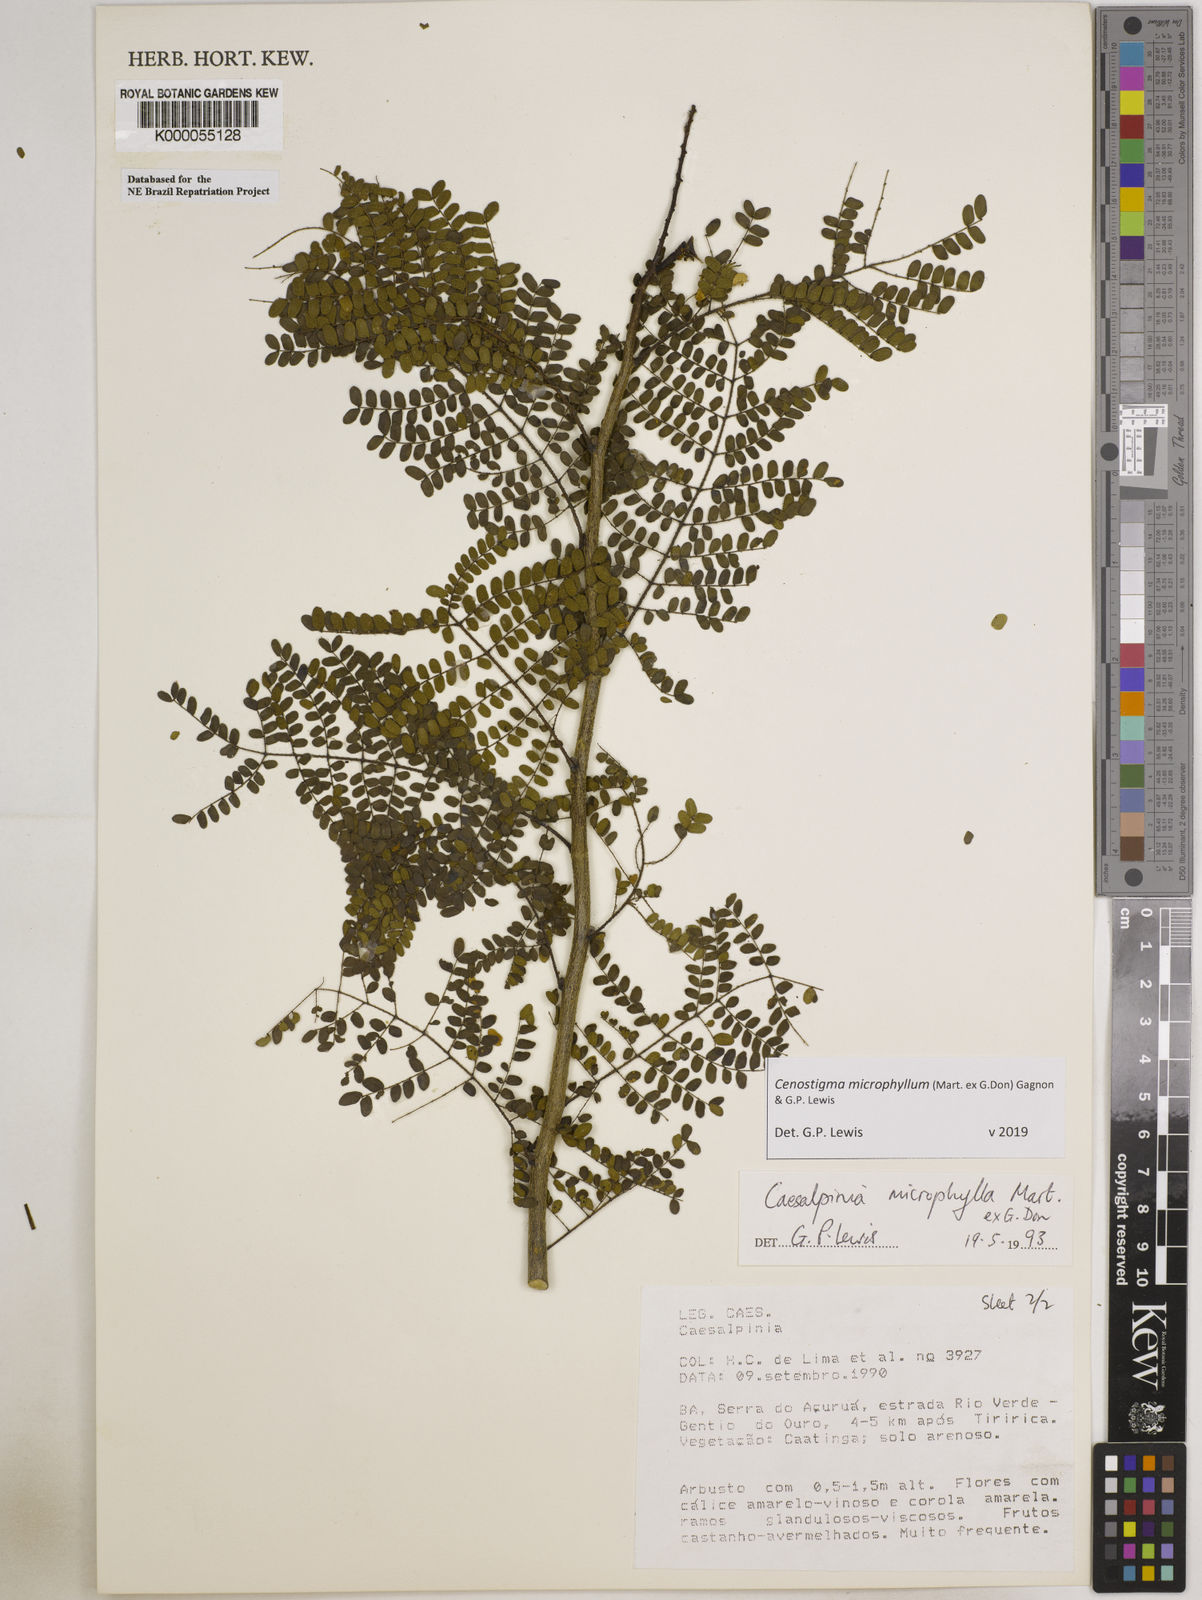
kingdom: Plantae
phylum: Tracheophyta
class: Magnoliopsida
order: Fabales
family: Fabaceae
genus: Cenostigma
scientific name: Cenostigma microphyllum
